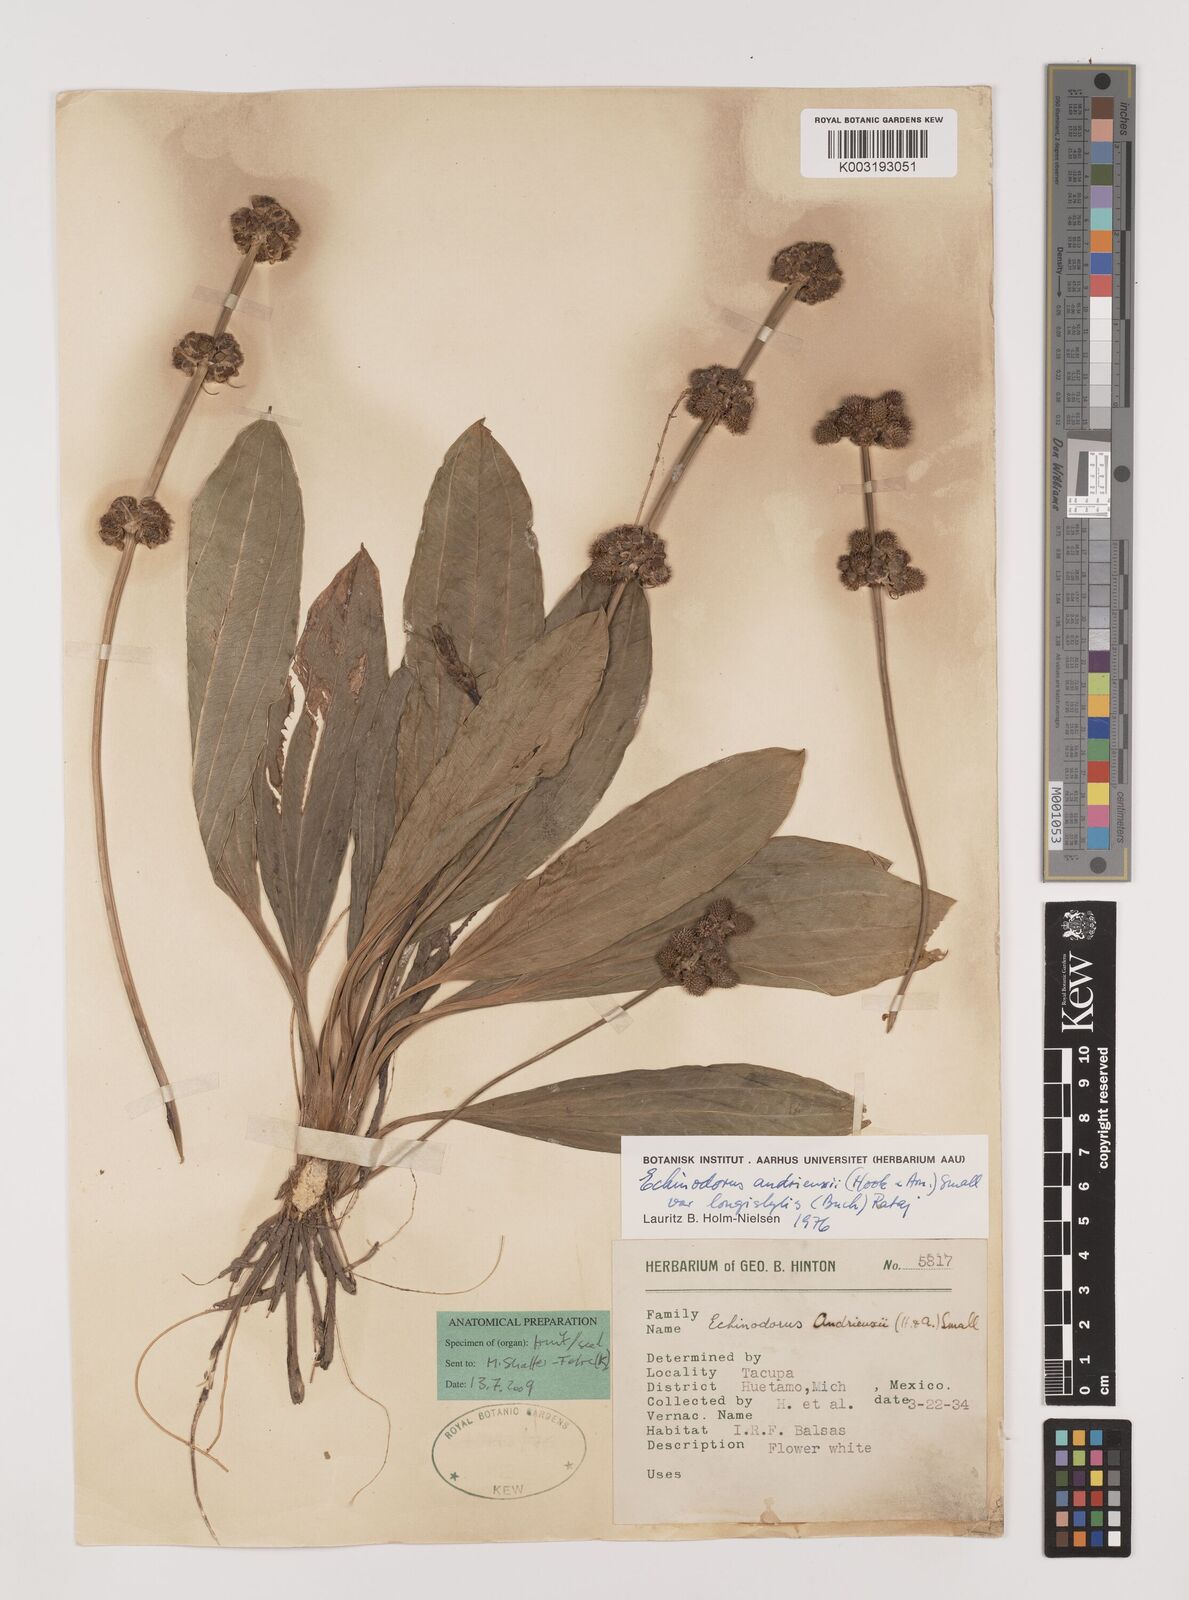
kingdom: Plantae
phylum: Tracheophyta
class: Liliopsida
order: Alismatales
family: Alismataceae
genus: Aquarius
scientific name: Aquarius subulatus
